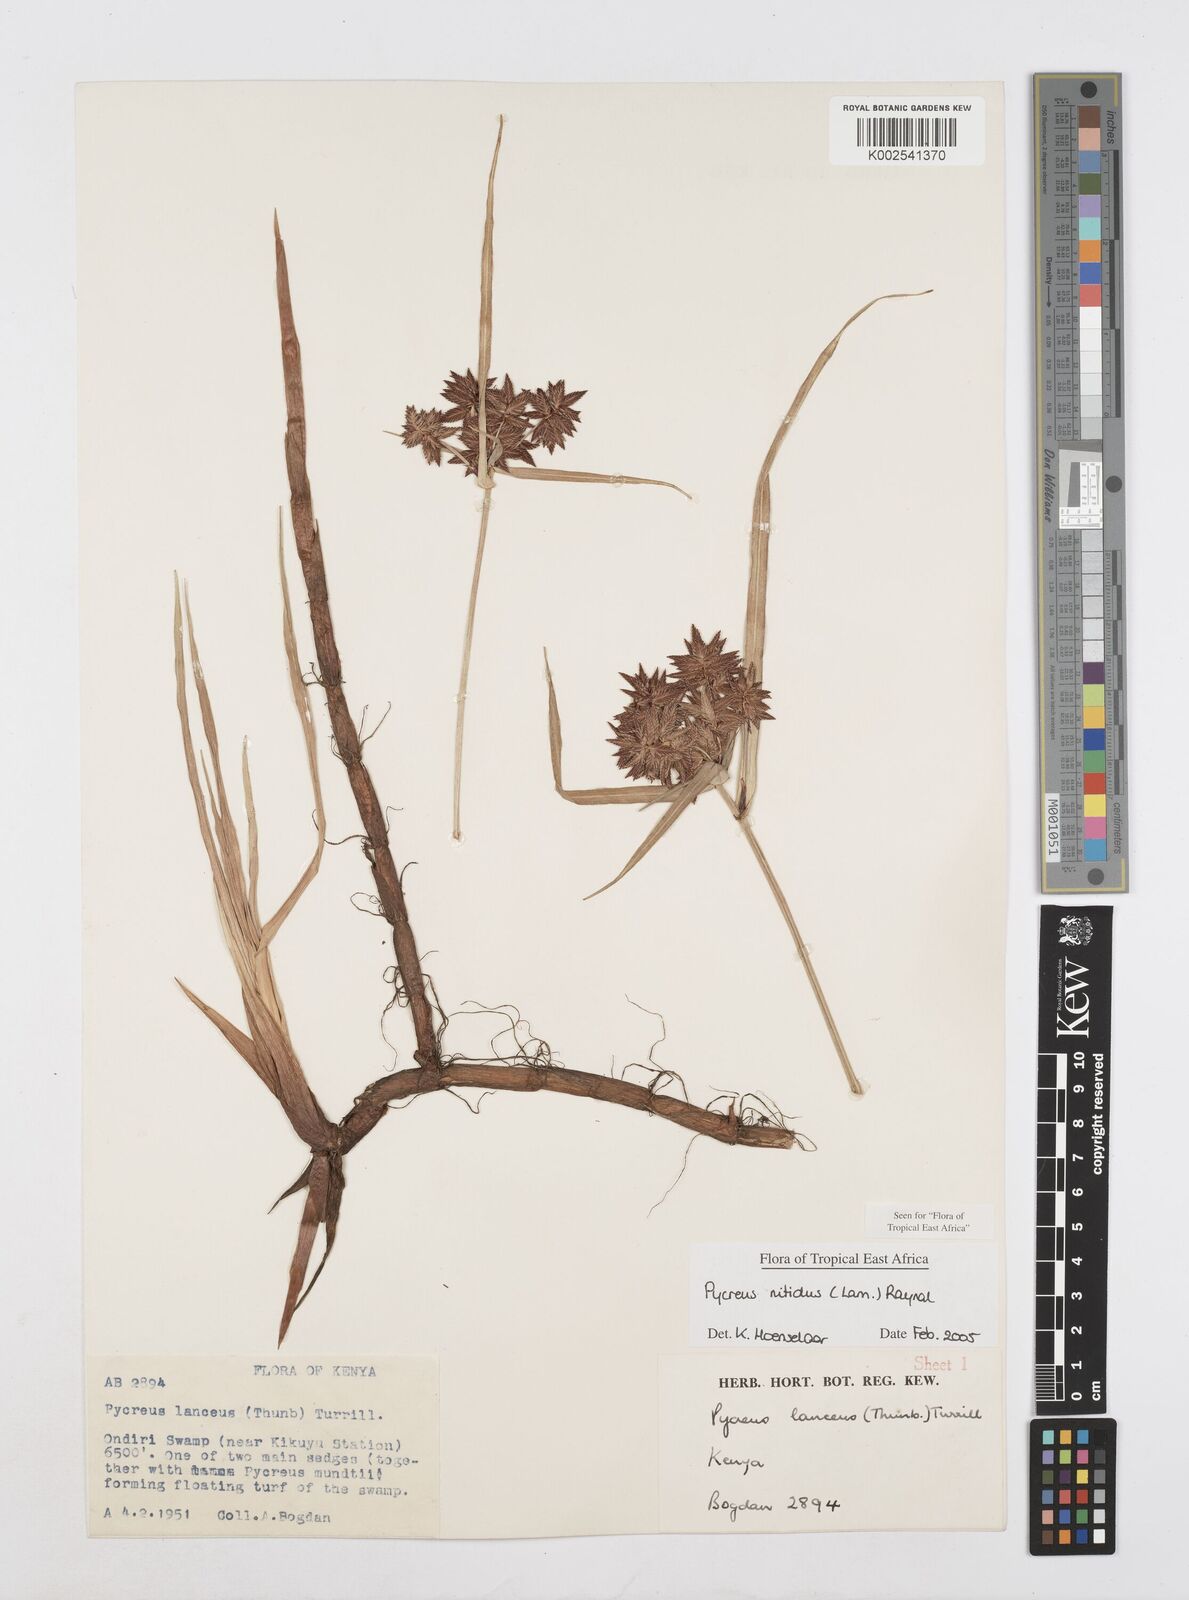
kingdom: Plantae
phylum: Tracheophyta
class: Liliopsida
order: Poales
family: Cyperaceae
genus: Cyperus
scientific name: Cyperus nitidus
